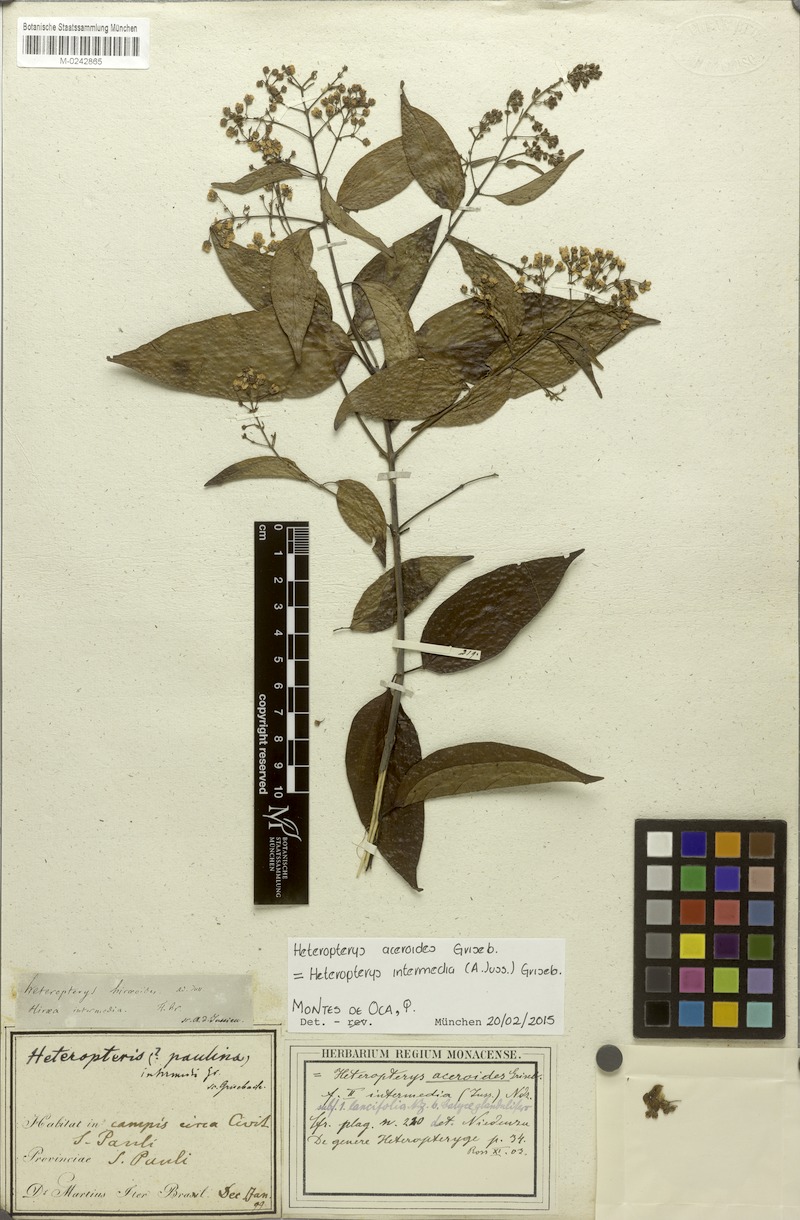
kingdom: Plantae
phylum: Tracheophyta
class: Magnoliopsida
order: Malpighiales
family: Malpighiaceae
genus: Heteropterys
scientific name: Heteropterys intermedia
